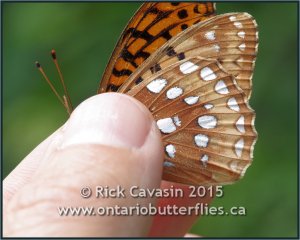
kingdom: Animalia
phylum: Arthropoda
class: Insecta
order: Lepidoptera
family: Nymphalidae
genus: Speyeria
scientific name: Speyeria cybele
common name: Great Spangled Fritillary
